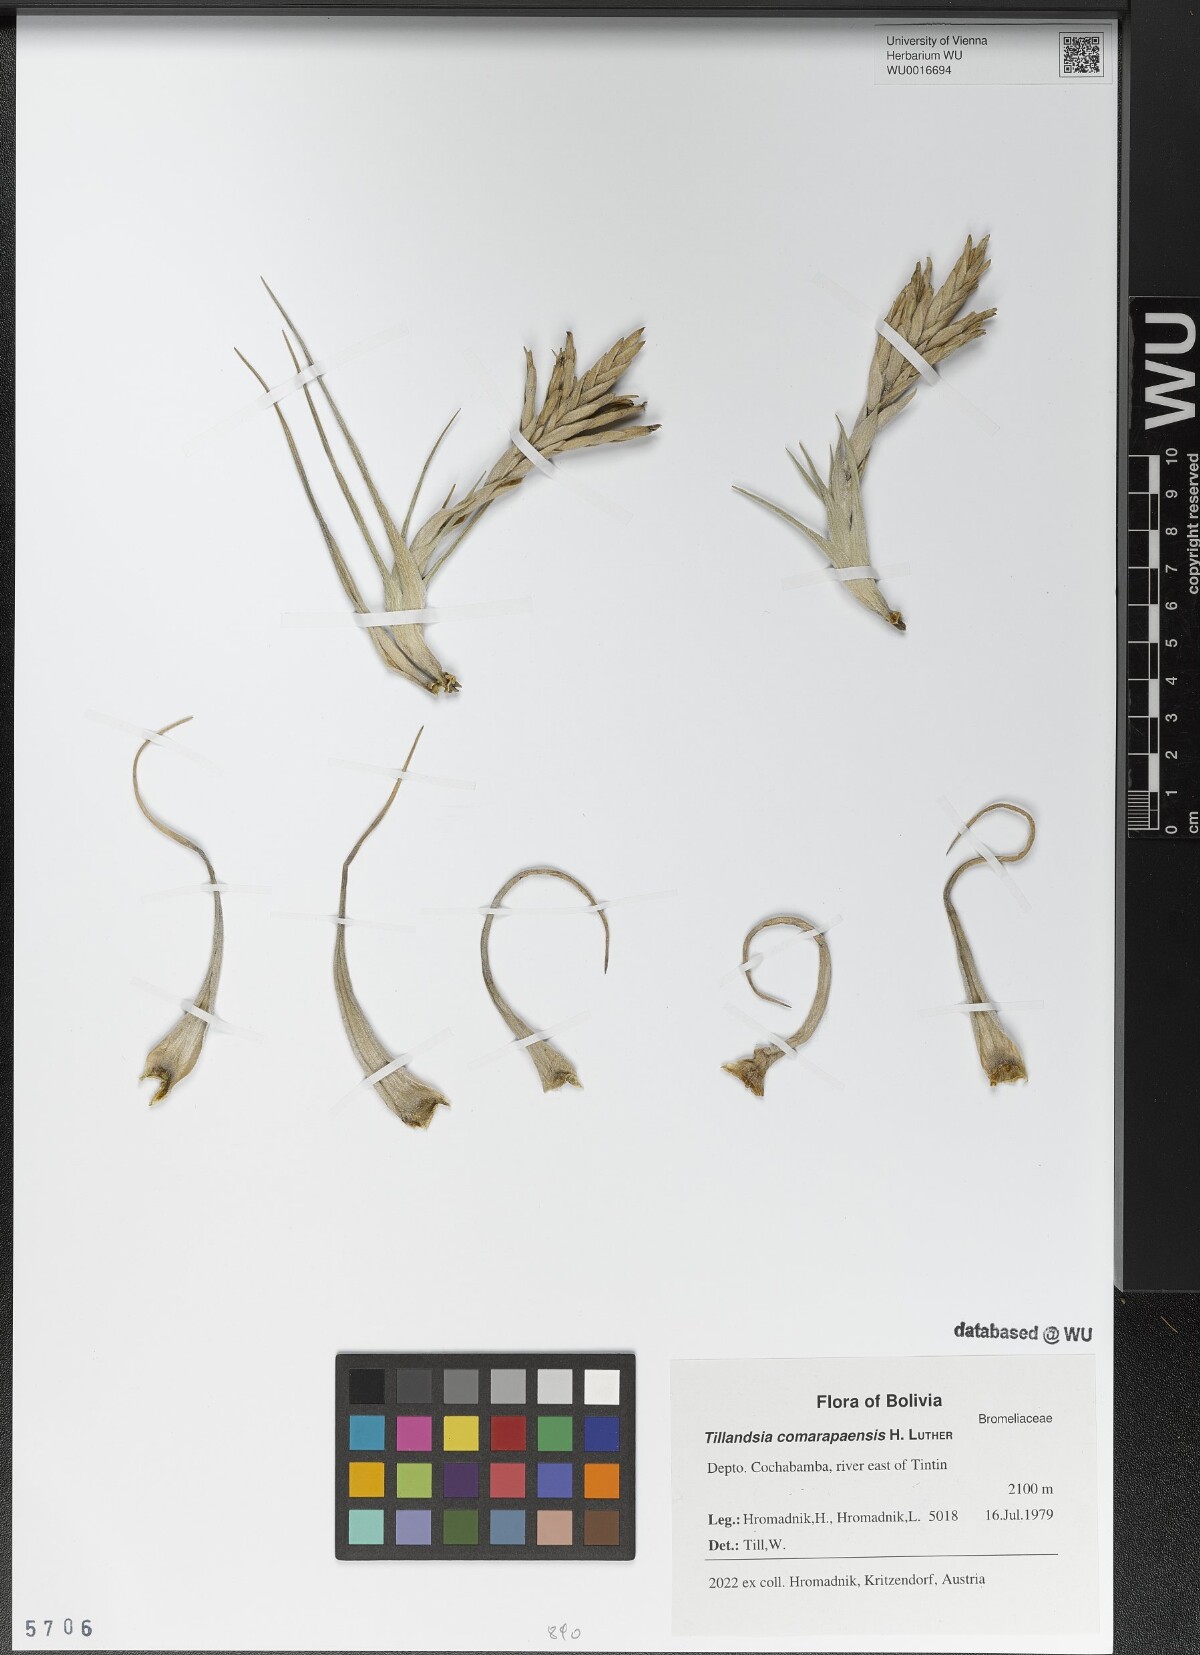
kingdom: Plantae
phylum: Tracheophyta
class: Liliopsida
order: Poales
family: Bromeliaceae
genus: Tillandsia
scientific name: Tillandsia comarapaensis
